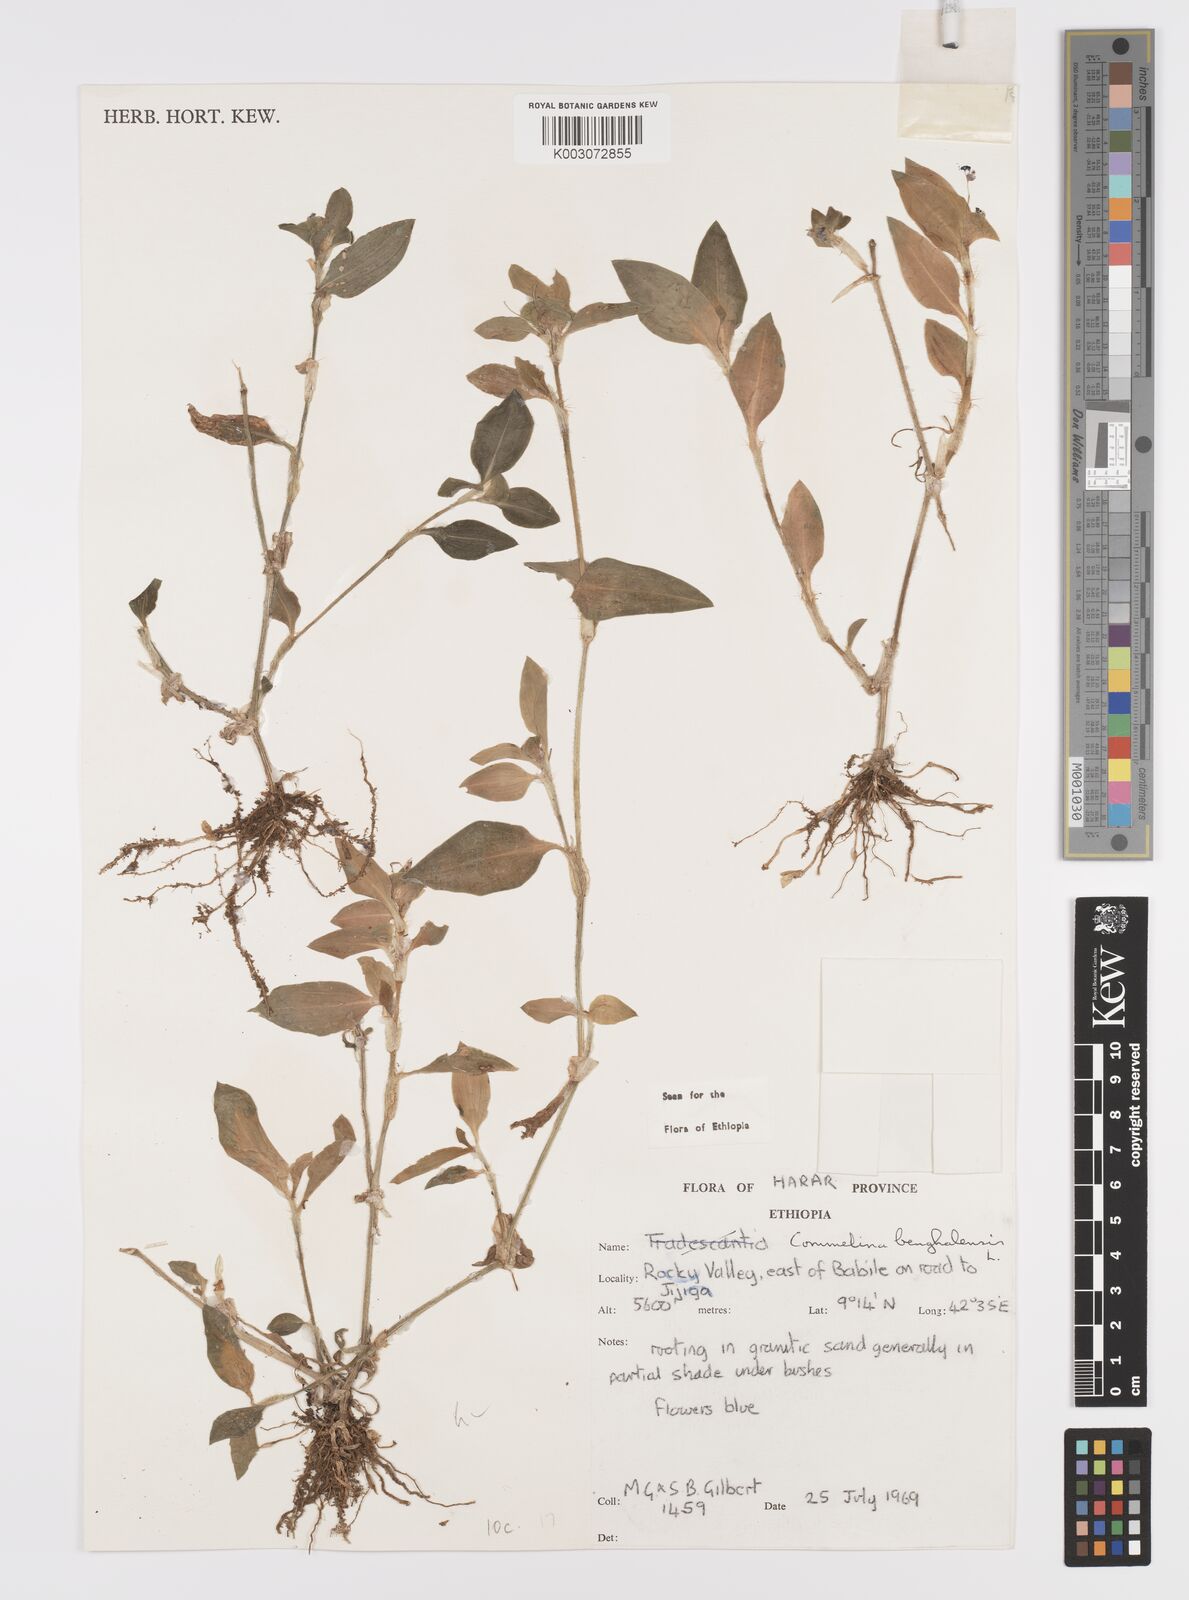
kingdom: Plantae
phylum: Tracheophyta
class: Liliopsida
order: Commelinales
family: Commelinaceae
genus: Commelina
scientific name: Commelina benghalensis
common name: Jio
